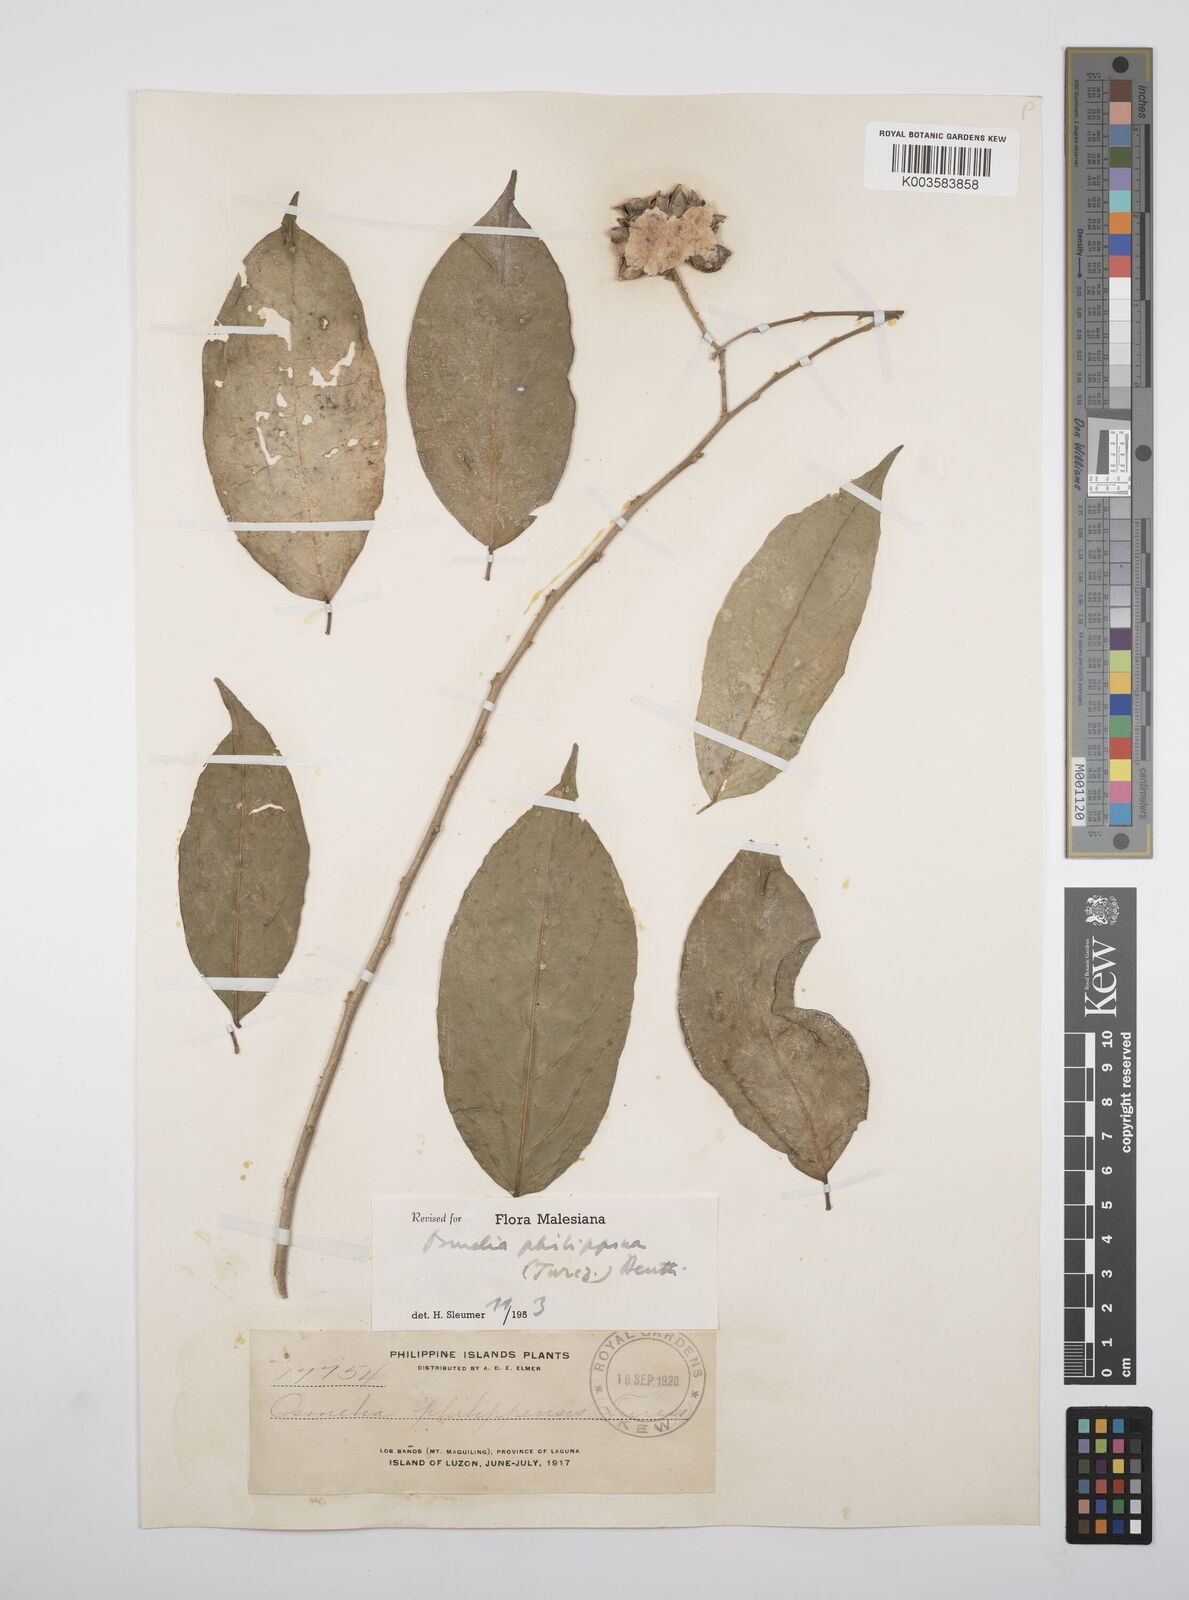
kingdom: Plantae
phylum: Tracheophyta
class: Magnoliopsida
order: Malpighiales
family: Salicaceae
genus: Osmelia
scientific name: Osmelia philippina
